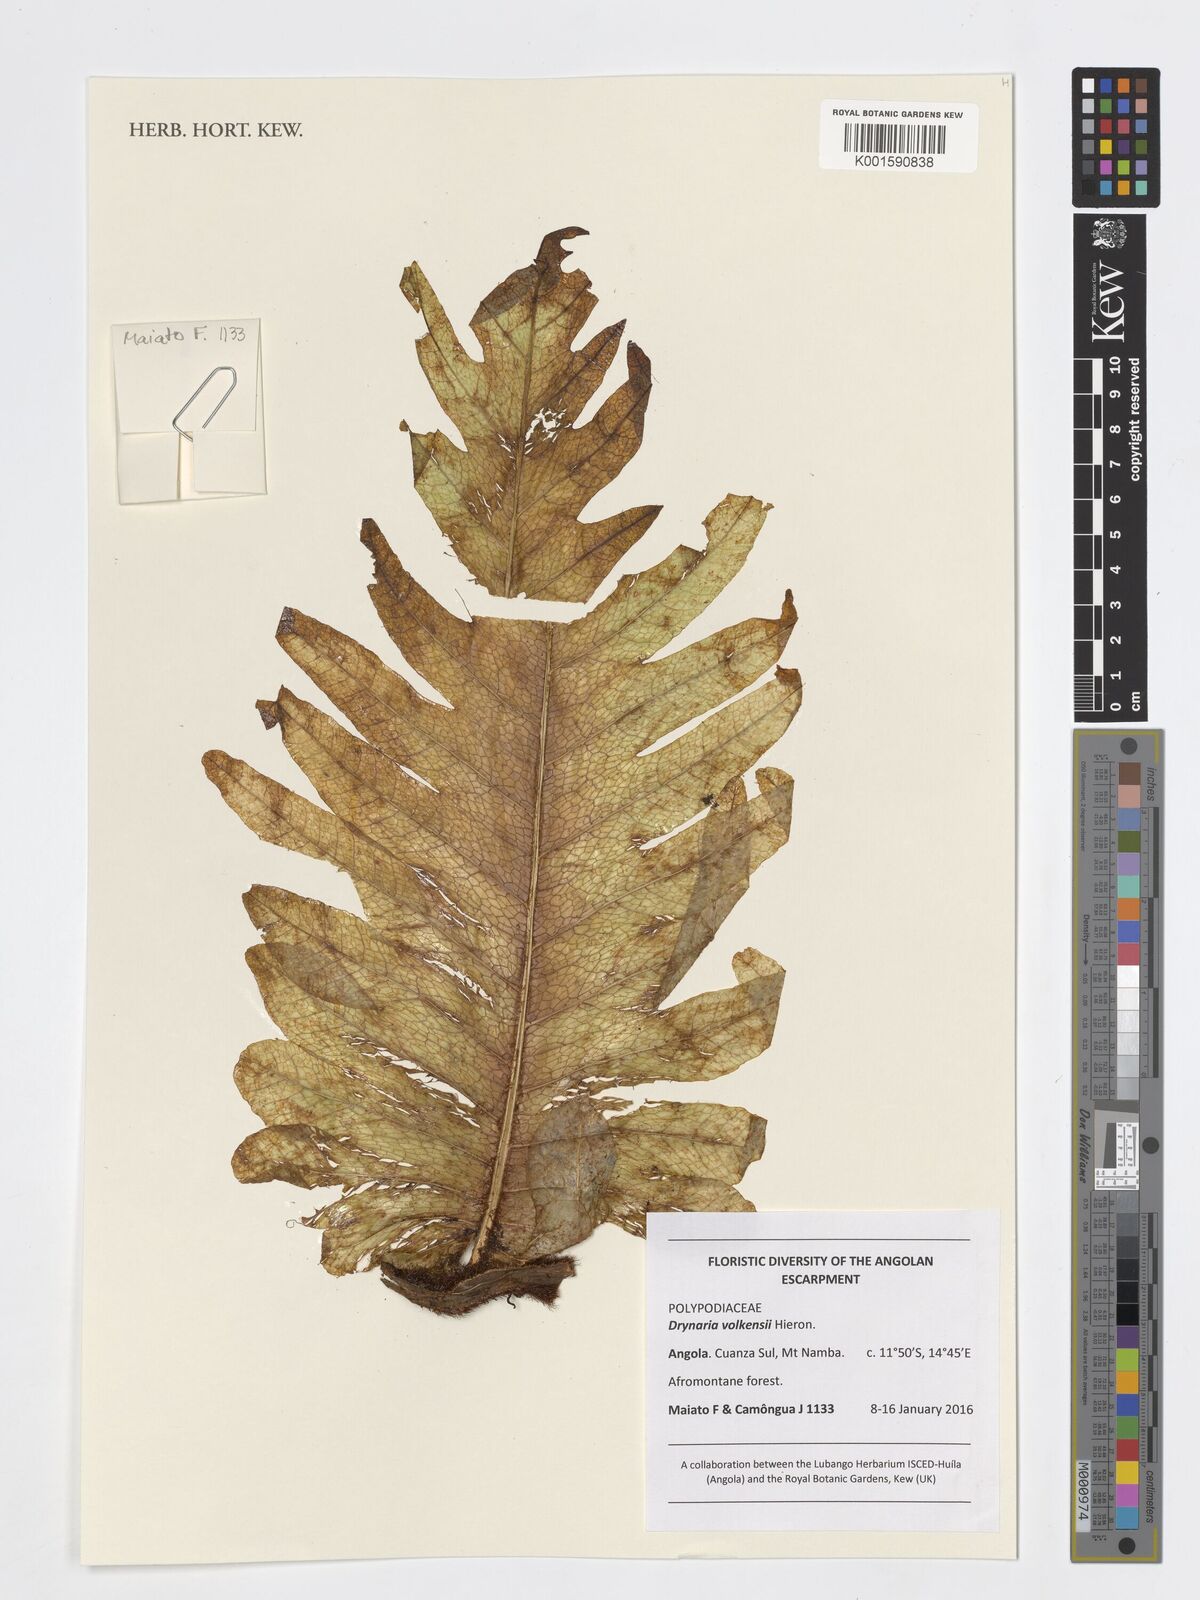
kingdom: Plantae
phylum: Tracheophyta
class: Polypodiopsida
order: Polypodiales
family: Polypodiaceae
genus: Drynaria
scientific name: Drynaria volkensii
